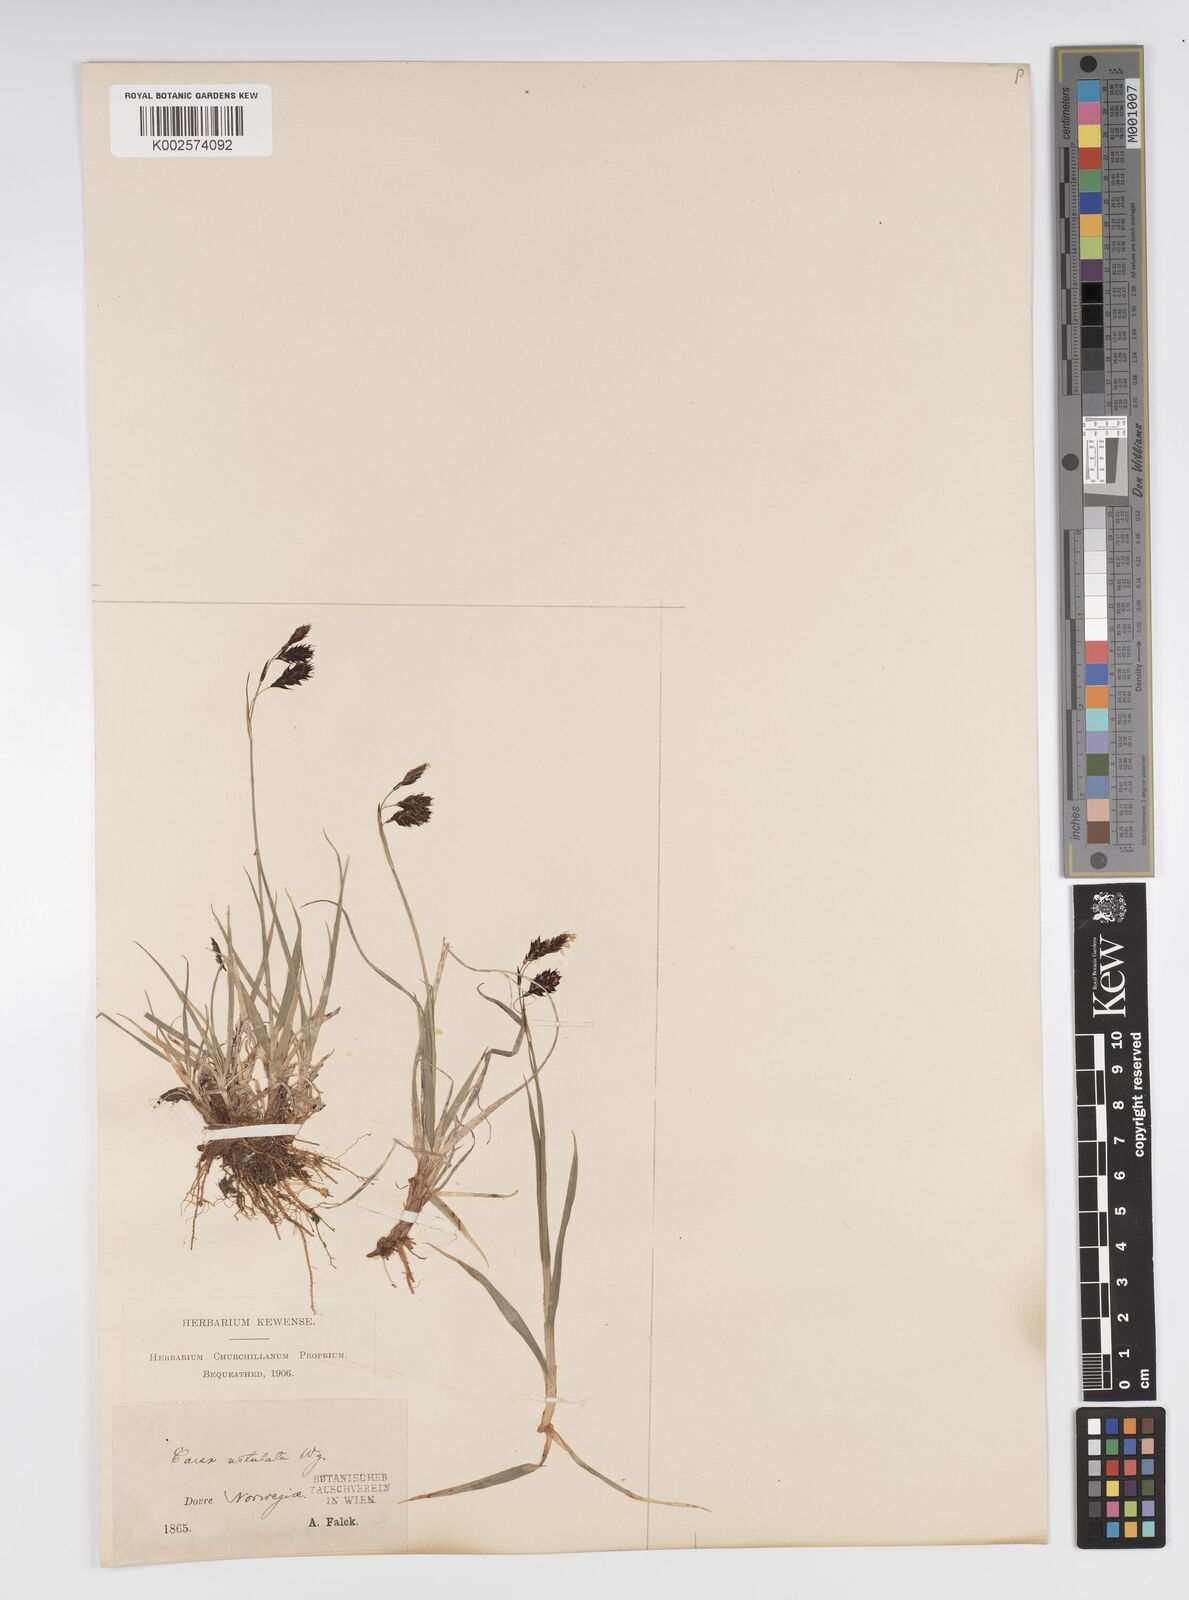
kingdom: Plantae
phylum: Tracheophyta
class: Liliopsida
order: Poales
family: Cyperaceae
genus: Carex
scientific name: Carex atrofusca
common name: Scorched alpine-sedge
